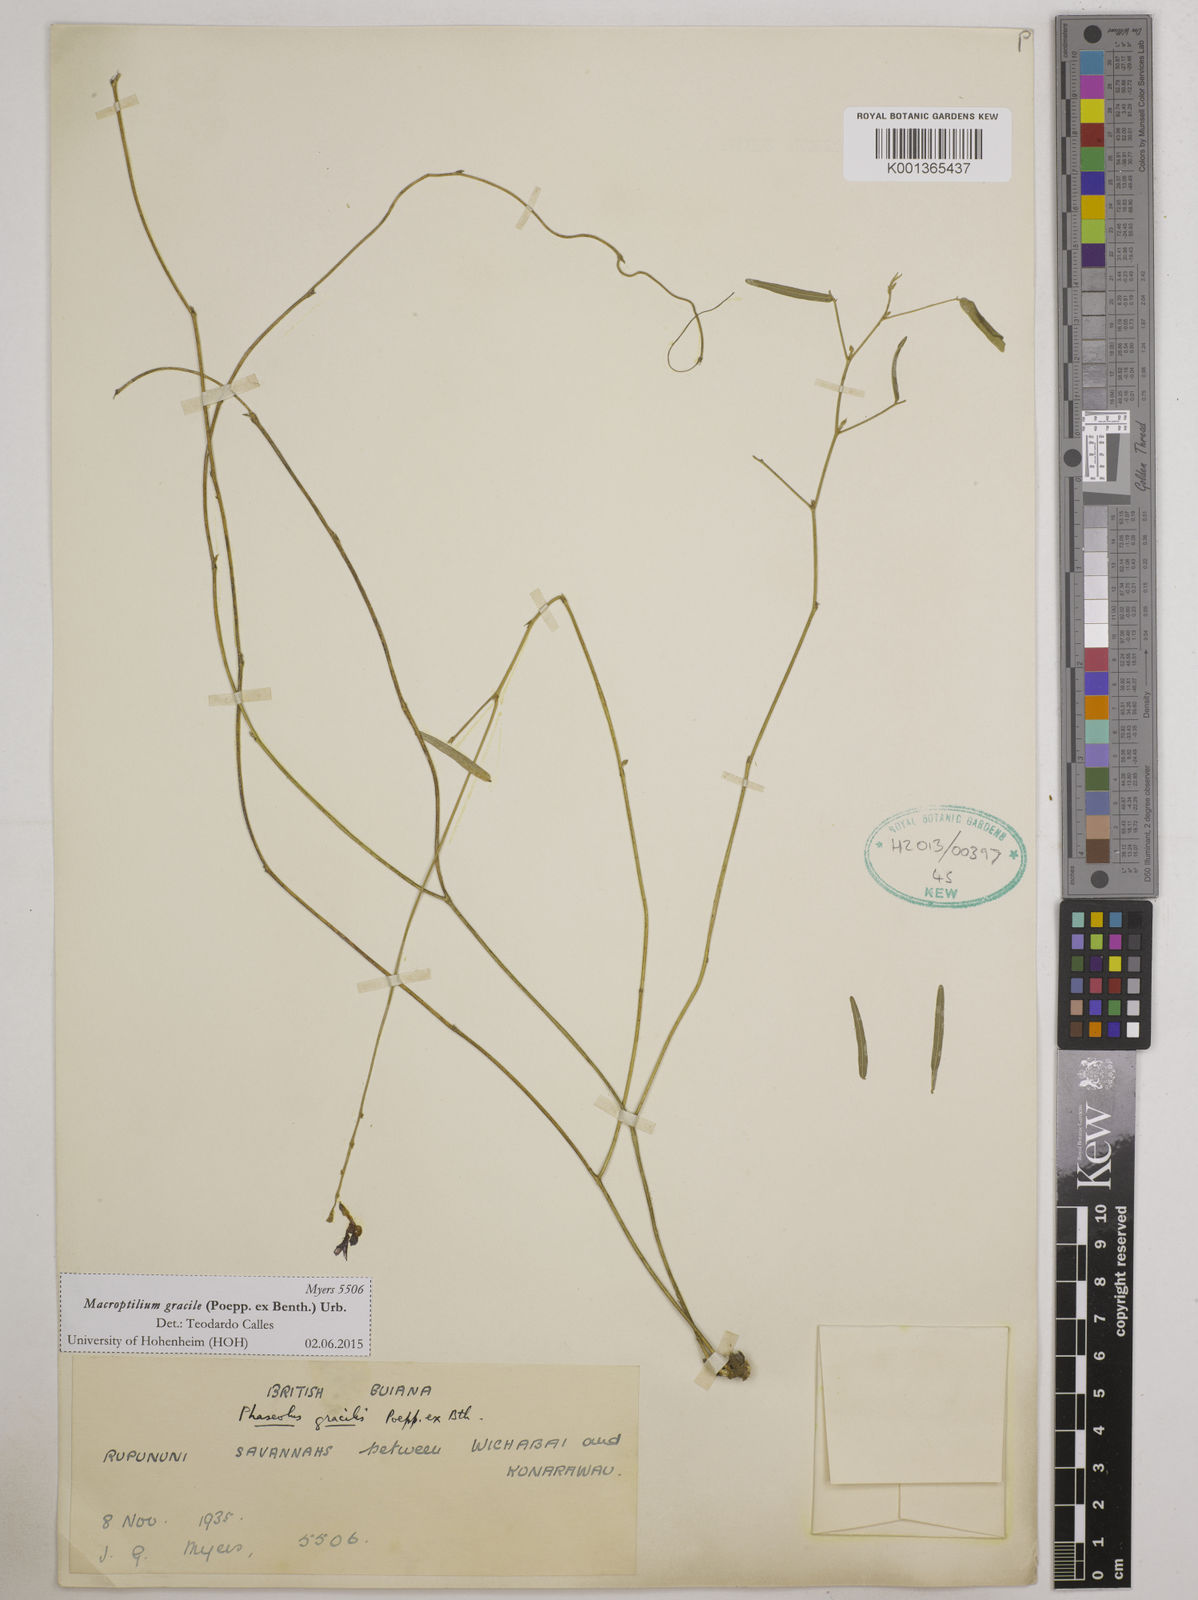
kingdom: Plantae
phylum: Tracheophyta
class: Magnoliopsida
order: Fabales
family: Fabaceae
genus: Macroptilium
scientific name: Macroptilium gracile
